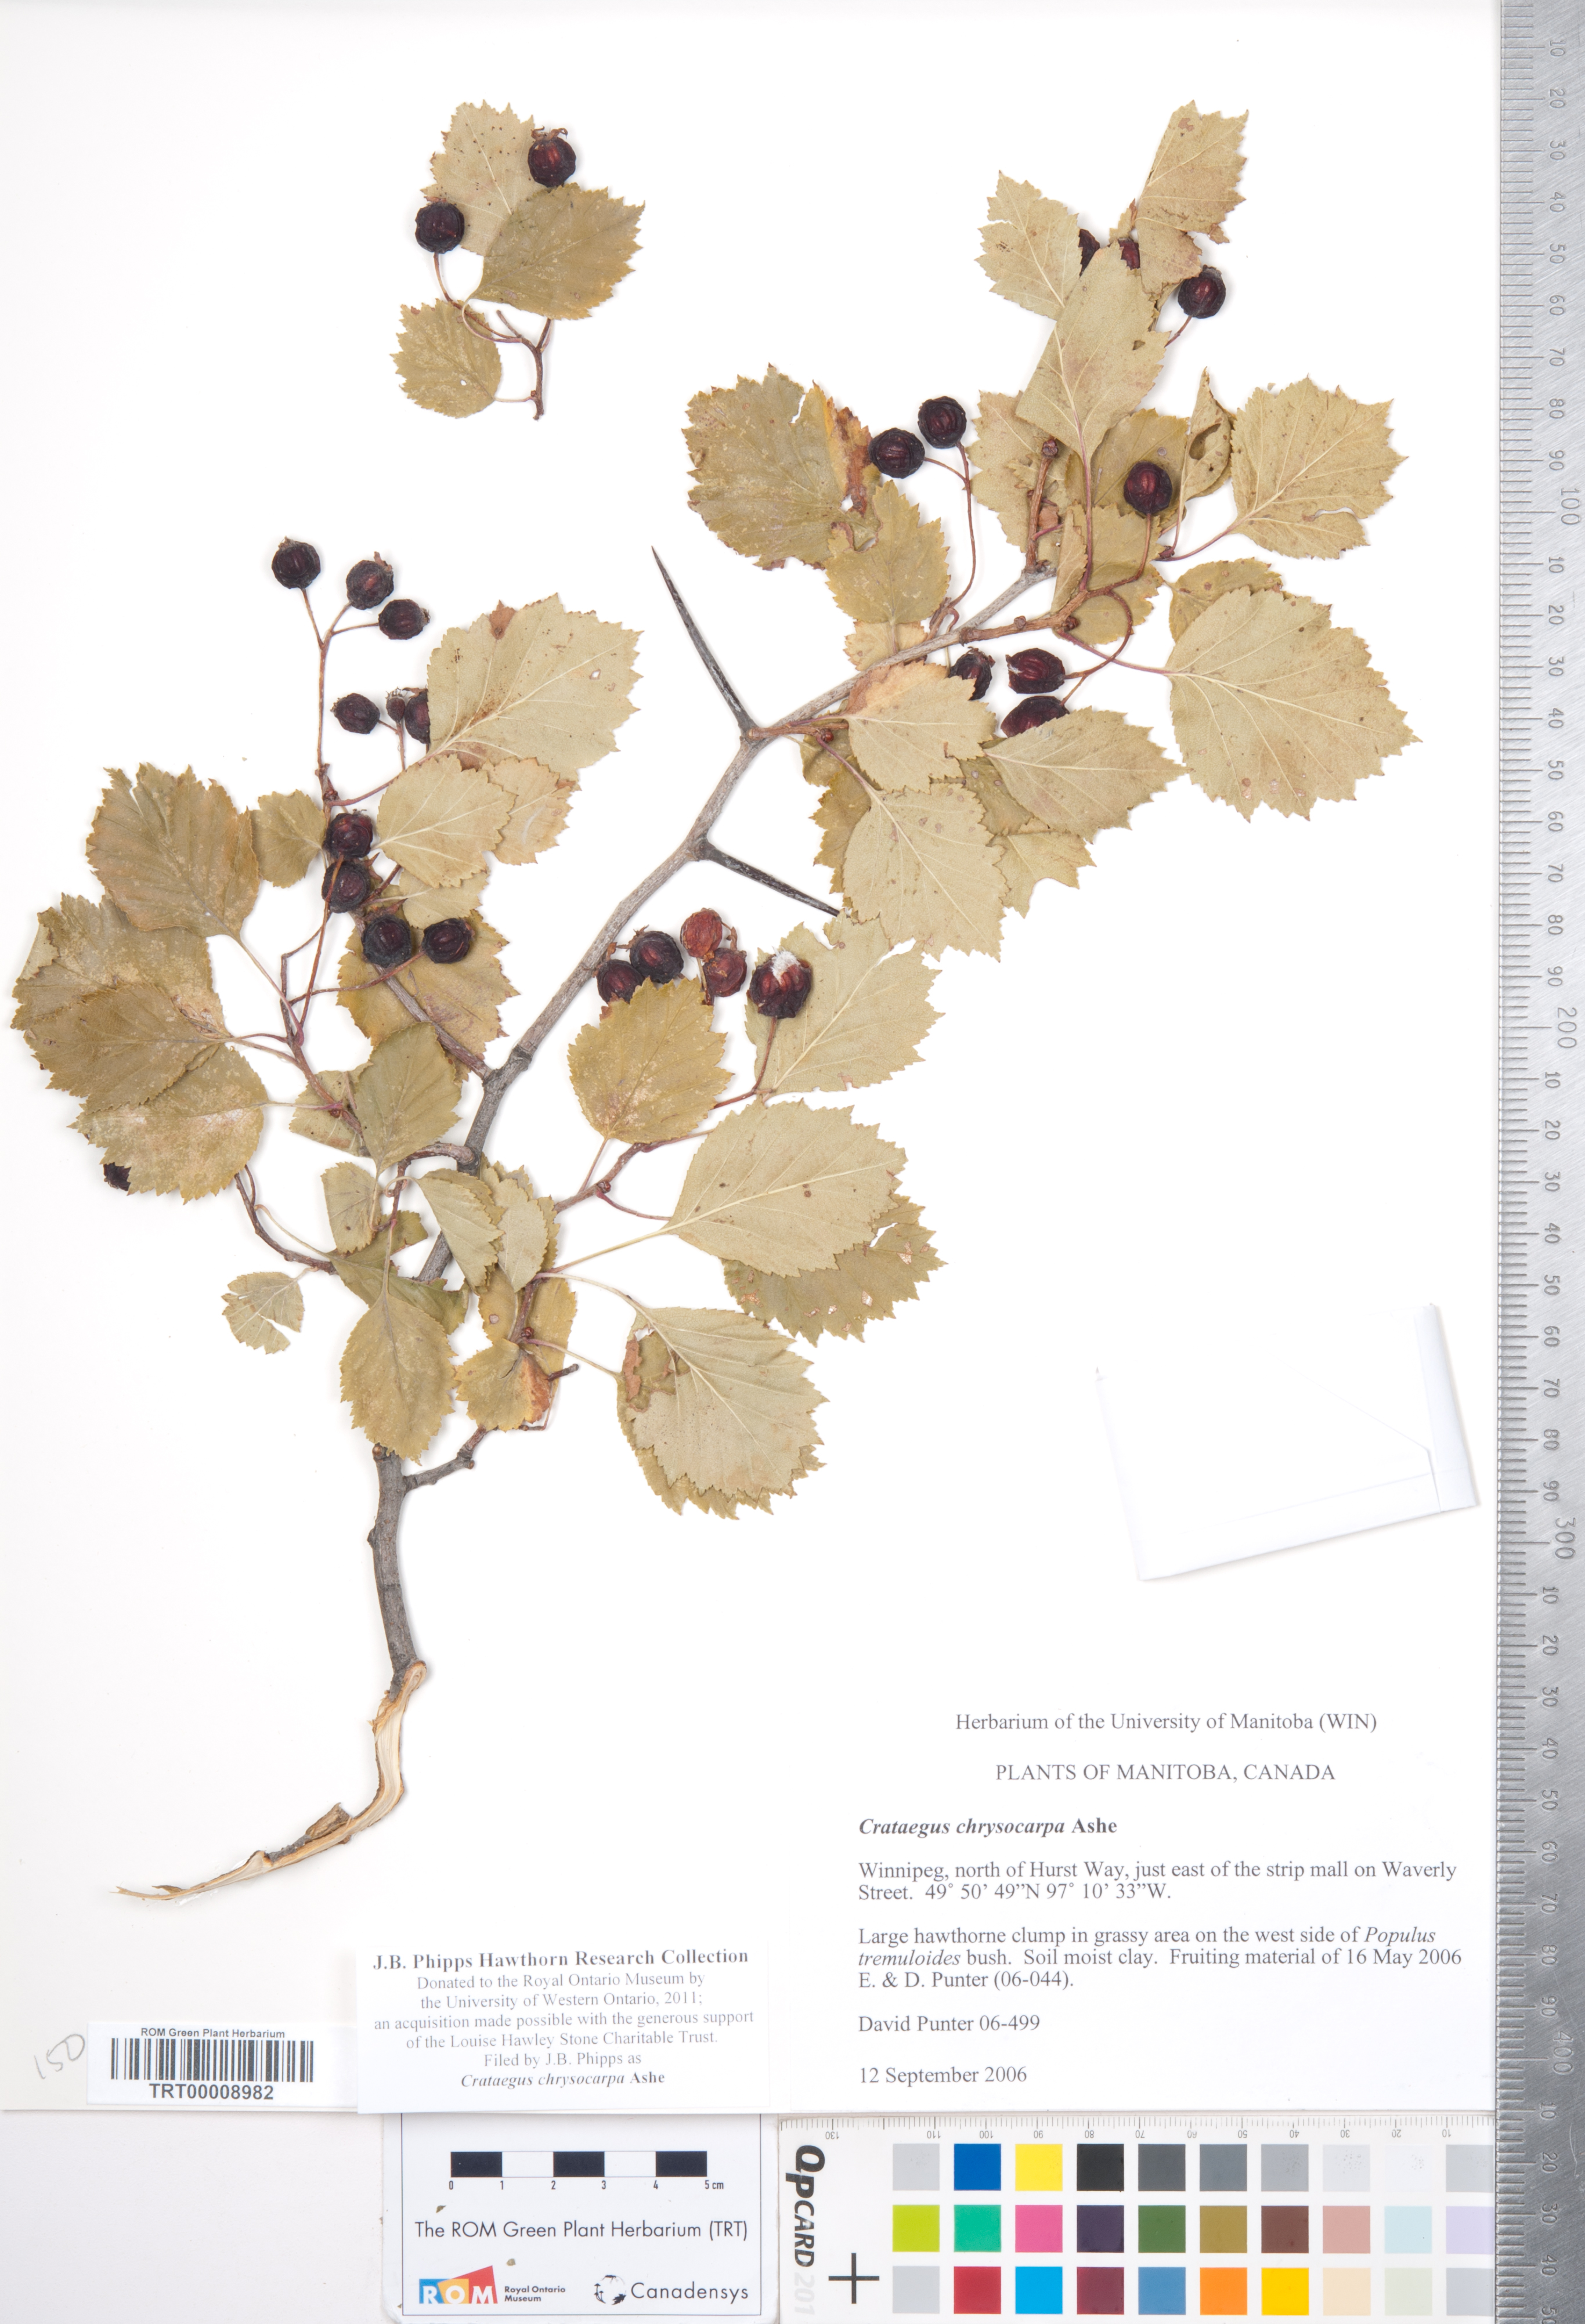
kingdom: Plantae
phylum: Tracheophyta
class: Magnoliopsida
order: Rosales
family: Rosaceae
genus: Crataegus
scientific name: Crataegus chrysocarpa
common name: Fire-berry hawthorn
